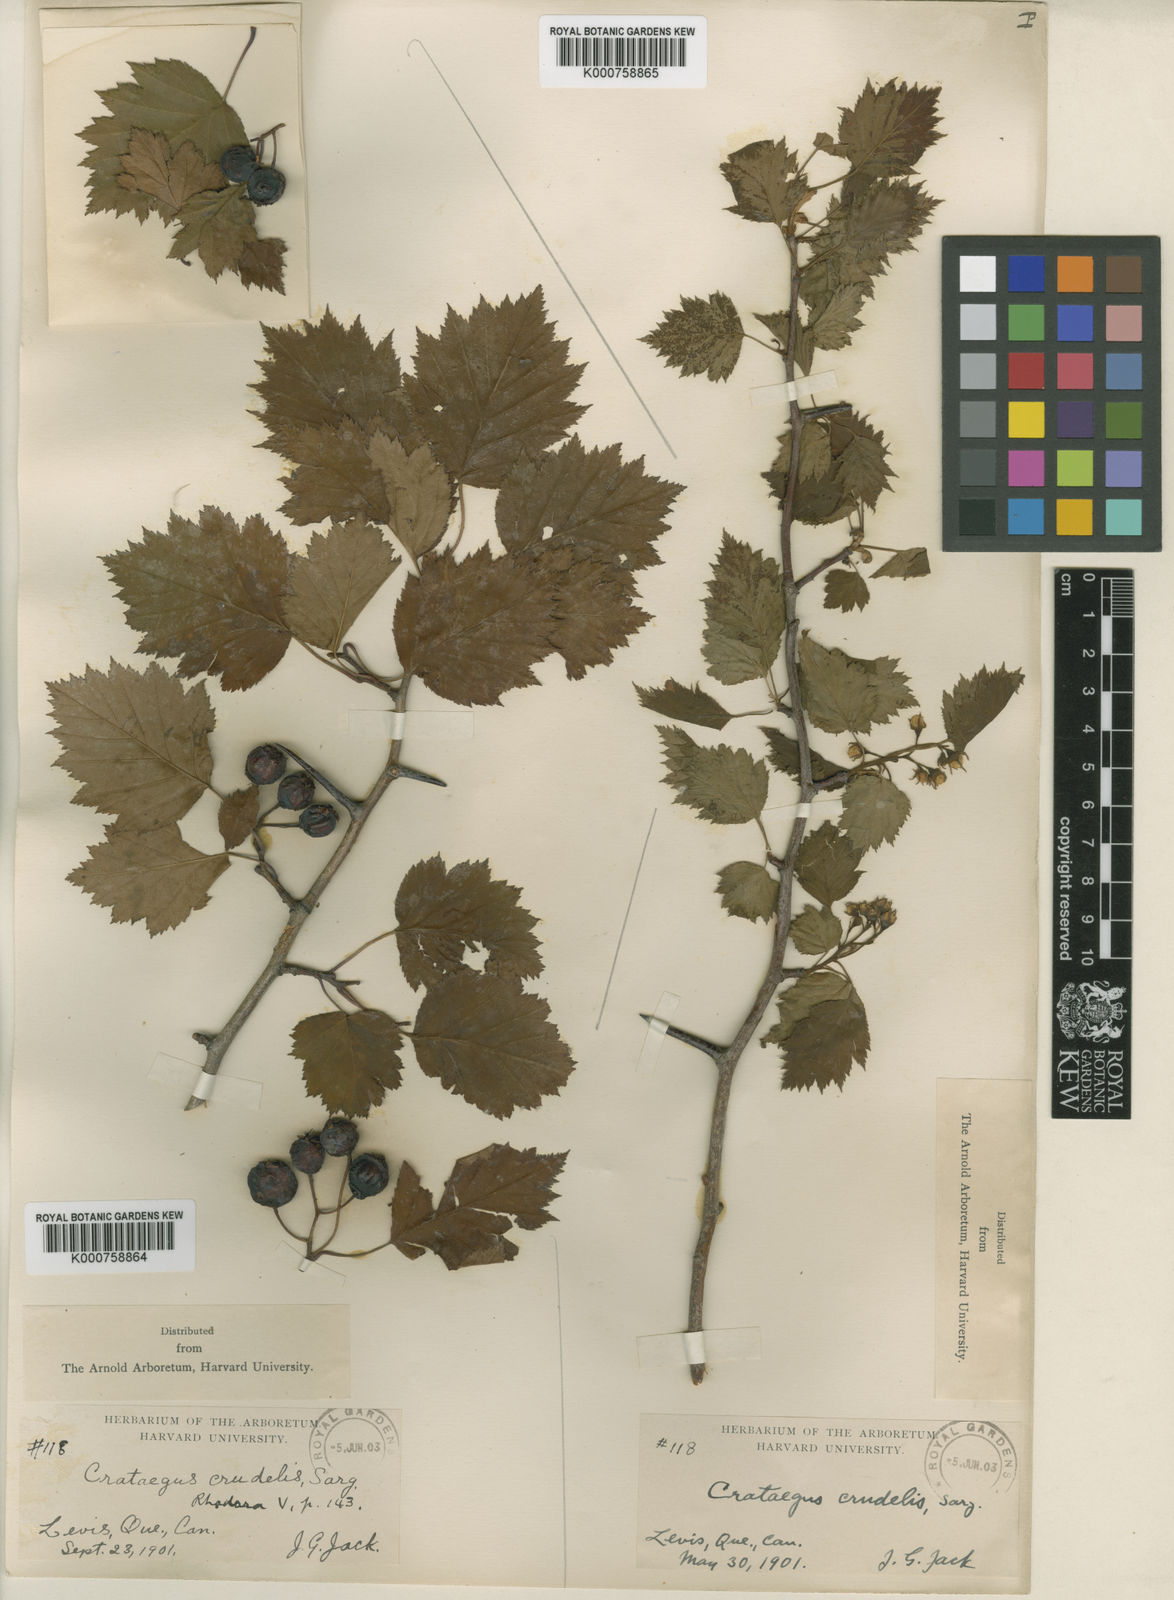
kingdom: Plantae
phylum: Tracheophyta
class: Magnoliopsida
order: Rosales
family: Rosaceae
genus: Crataegus
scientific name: Crataegus flabellata
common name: Bosc's hawthorn
